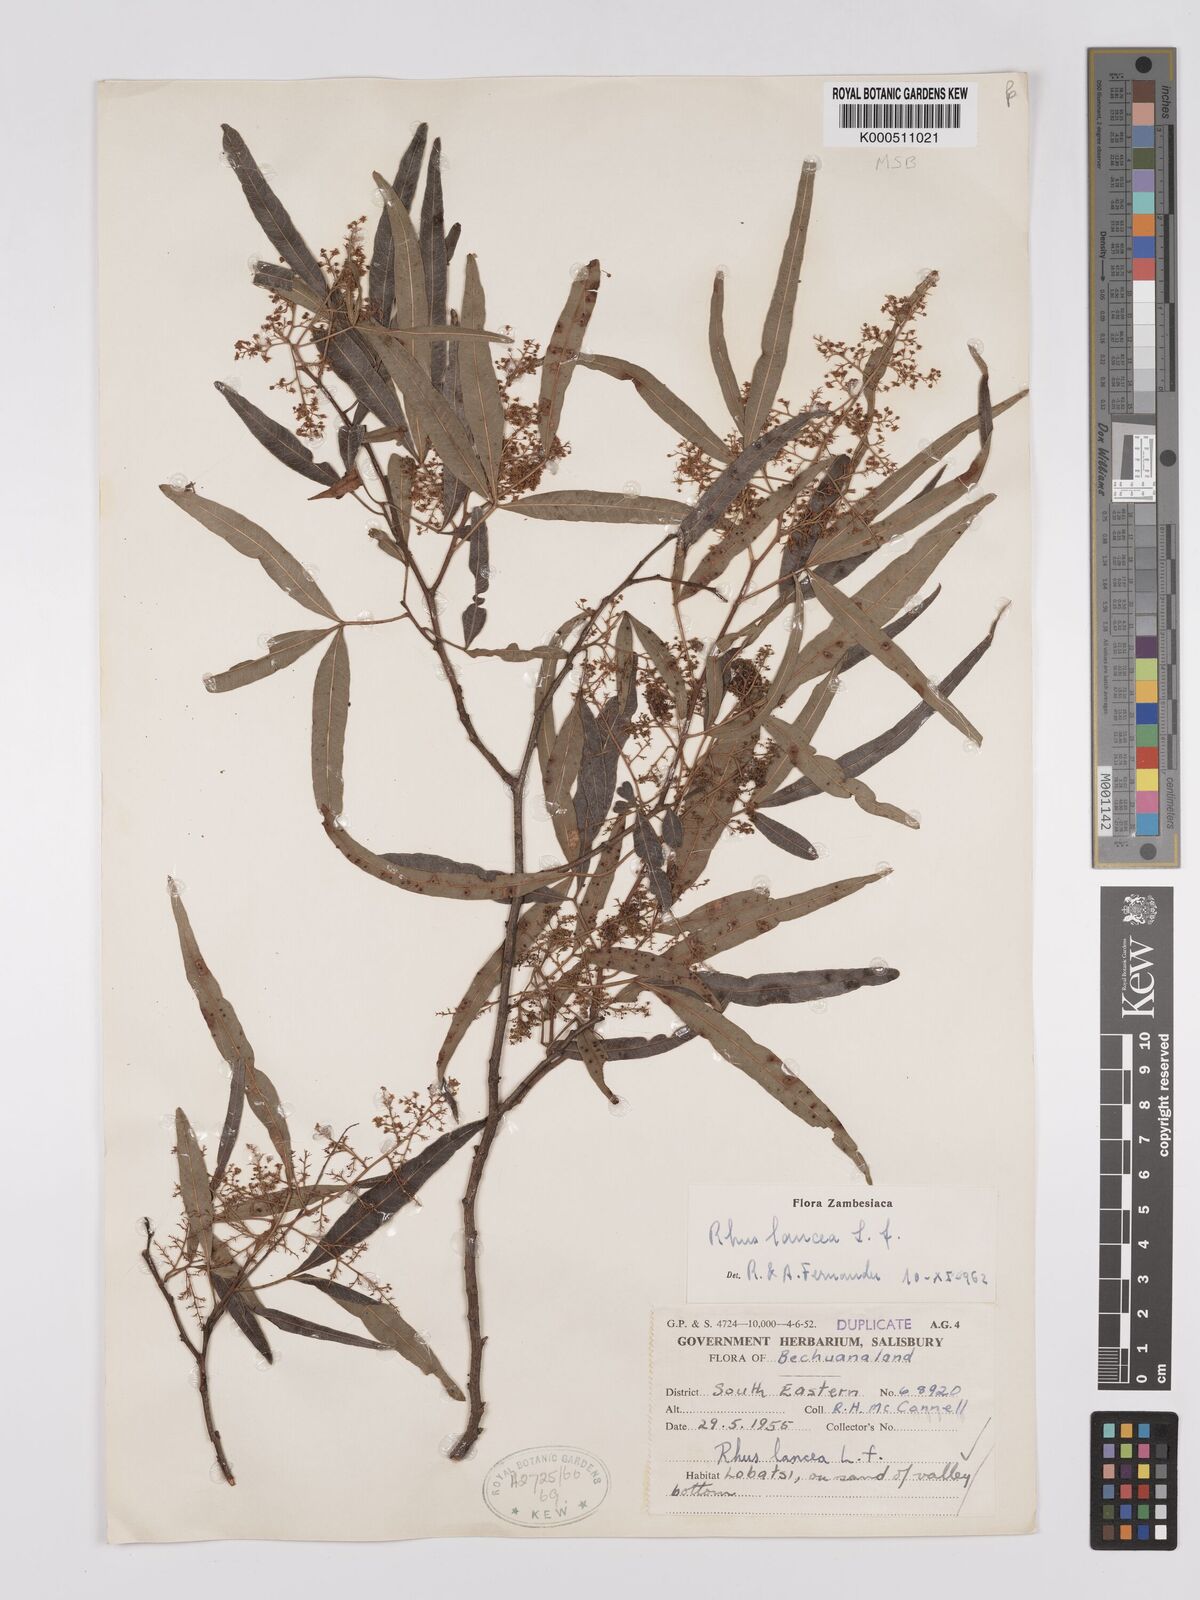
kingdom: Plantae
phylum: Tracheophyta
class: Magnoliopsida
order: Sapindales
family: Anacardiaceae
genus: Searsia
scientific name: Searsia lancea
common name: Cashew
